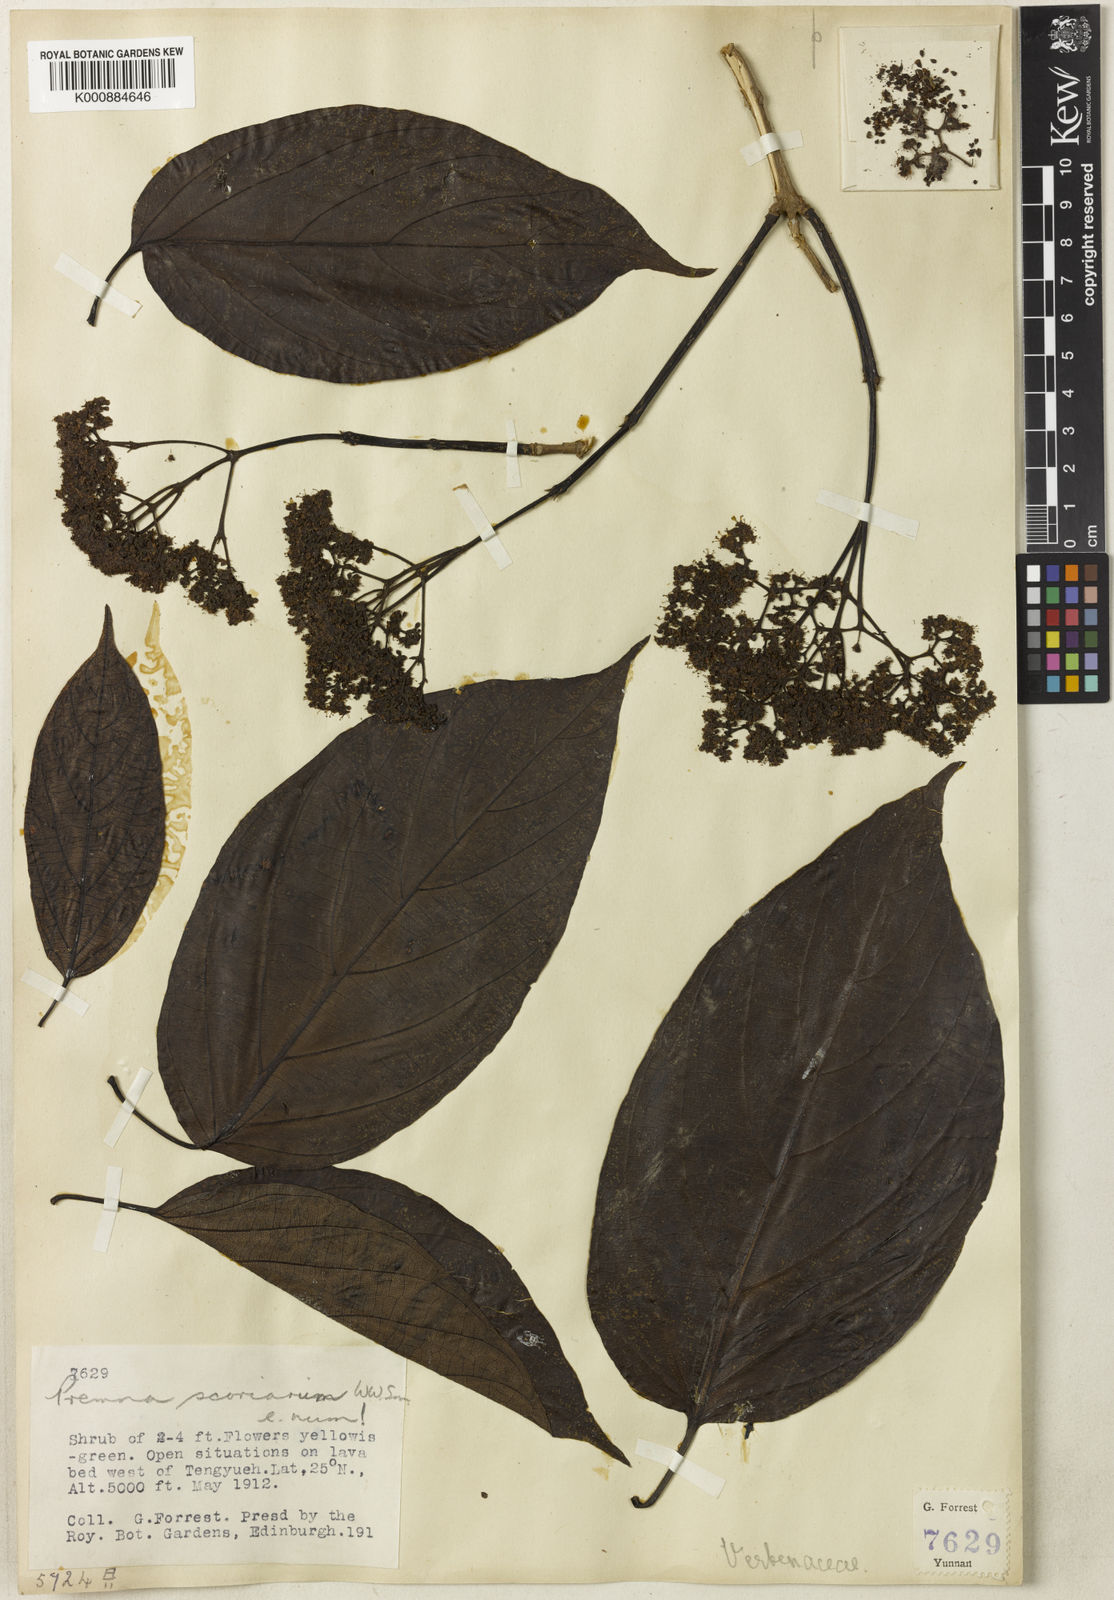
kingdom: Plantae
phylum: Tracheophyta
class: Magnoliopsida
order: Lamiales
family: Lamiaceae
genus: Premna
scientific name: Premna scoriarum
